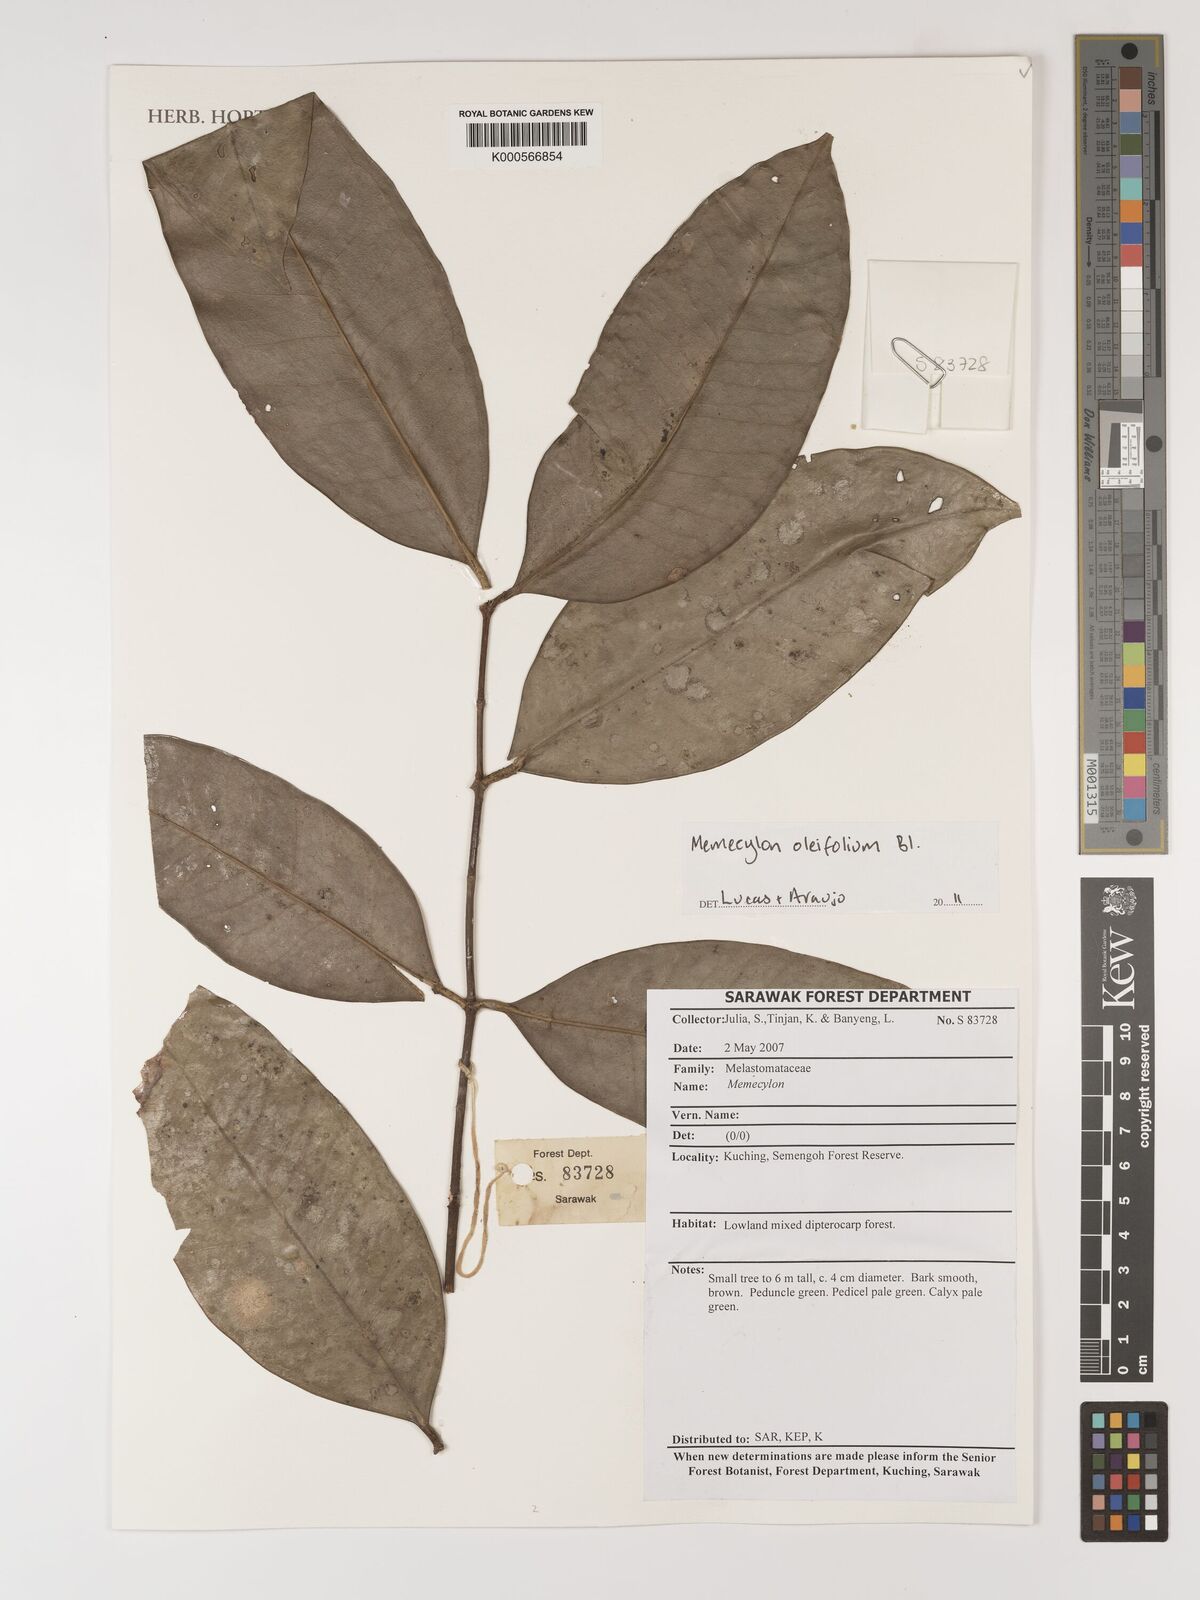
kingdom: Plantae
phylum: Tracheophyta
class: Magnoliopsida
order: Myrtales
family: Melastomataceae
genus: Memecylon
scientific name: Memecylon oleifolium
